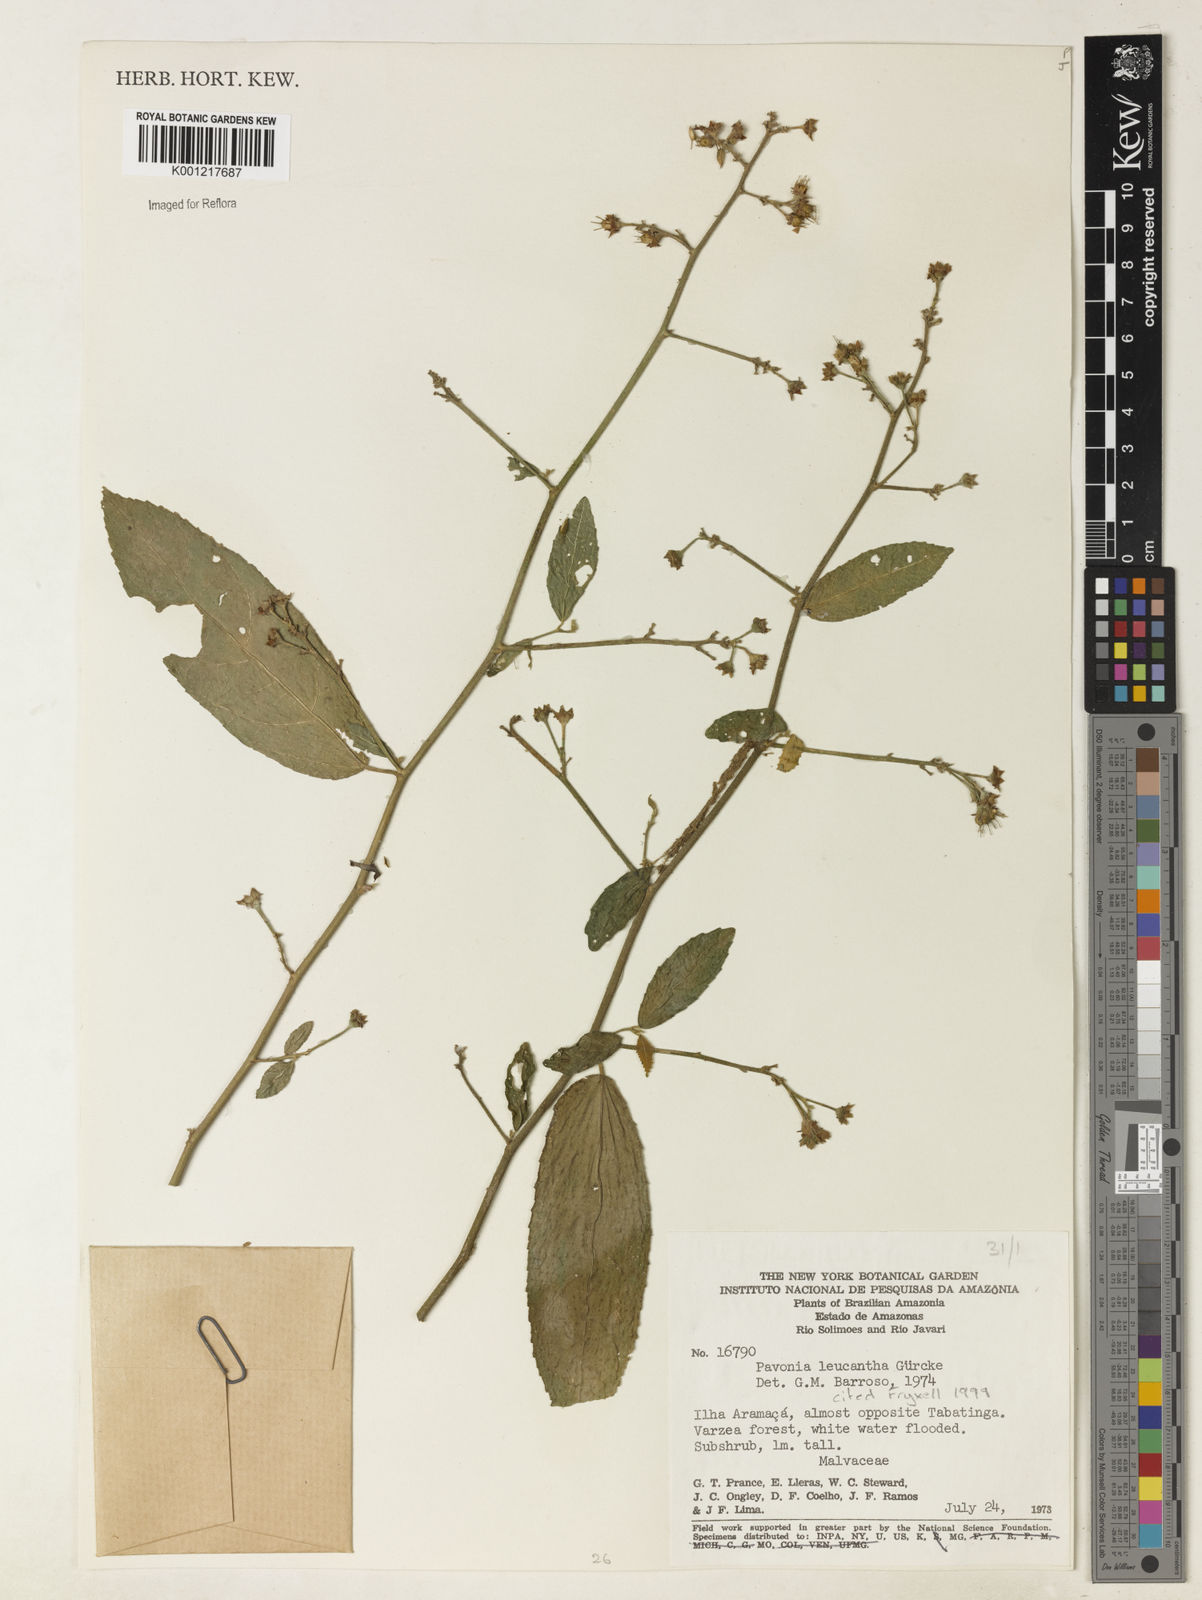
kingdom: Plantae
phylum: Tracheophyta
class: Magnoliopsida
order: Malvales
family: Malvaceae
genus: Pavonia
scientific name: Pavonia leucantha
